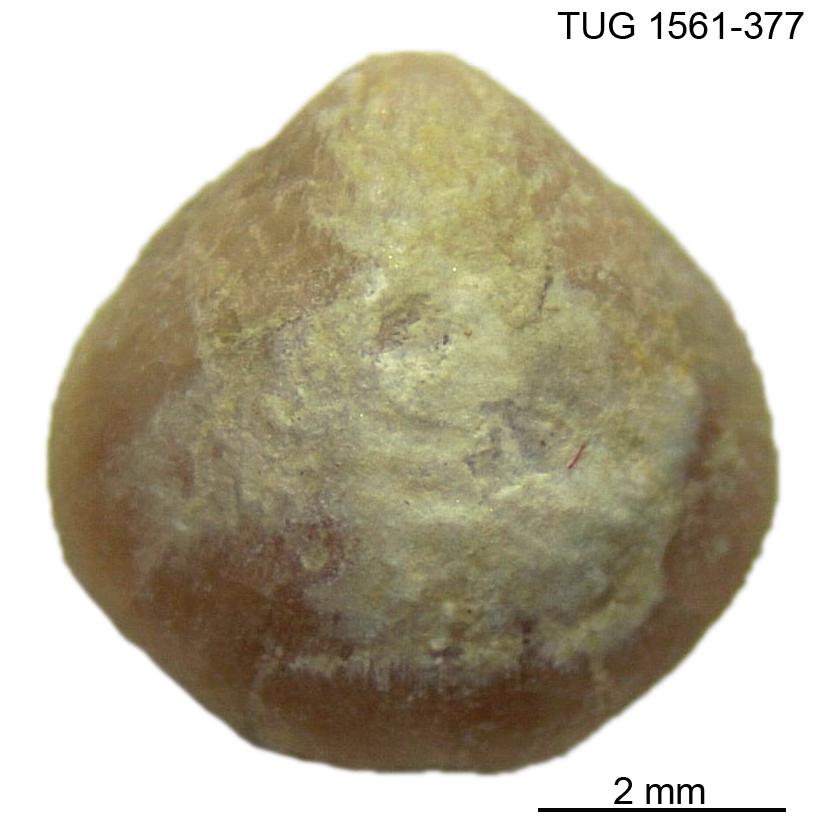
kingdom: Animalia
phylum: Brachiopoda
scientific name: Brachiopoda
